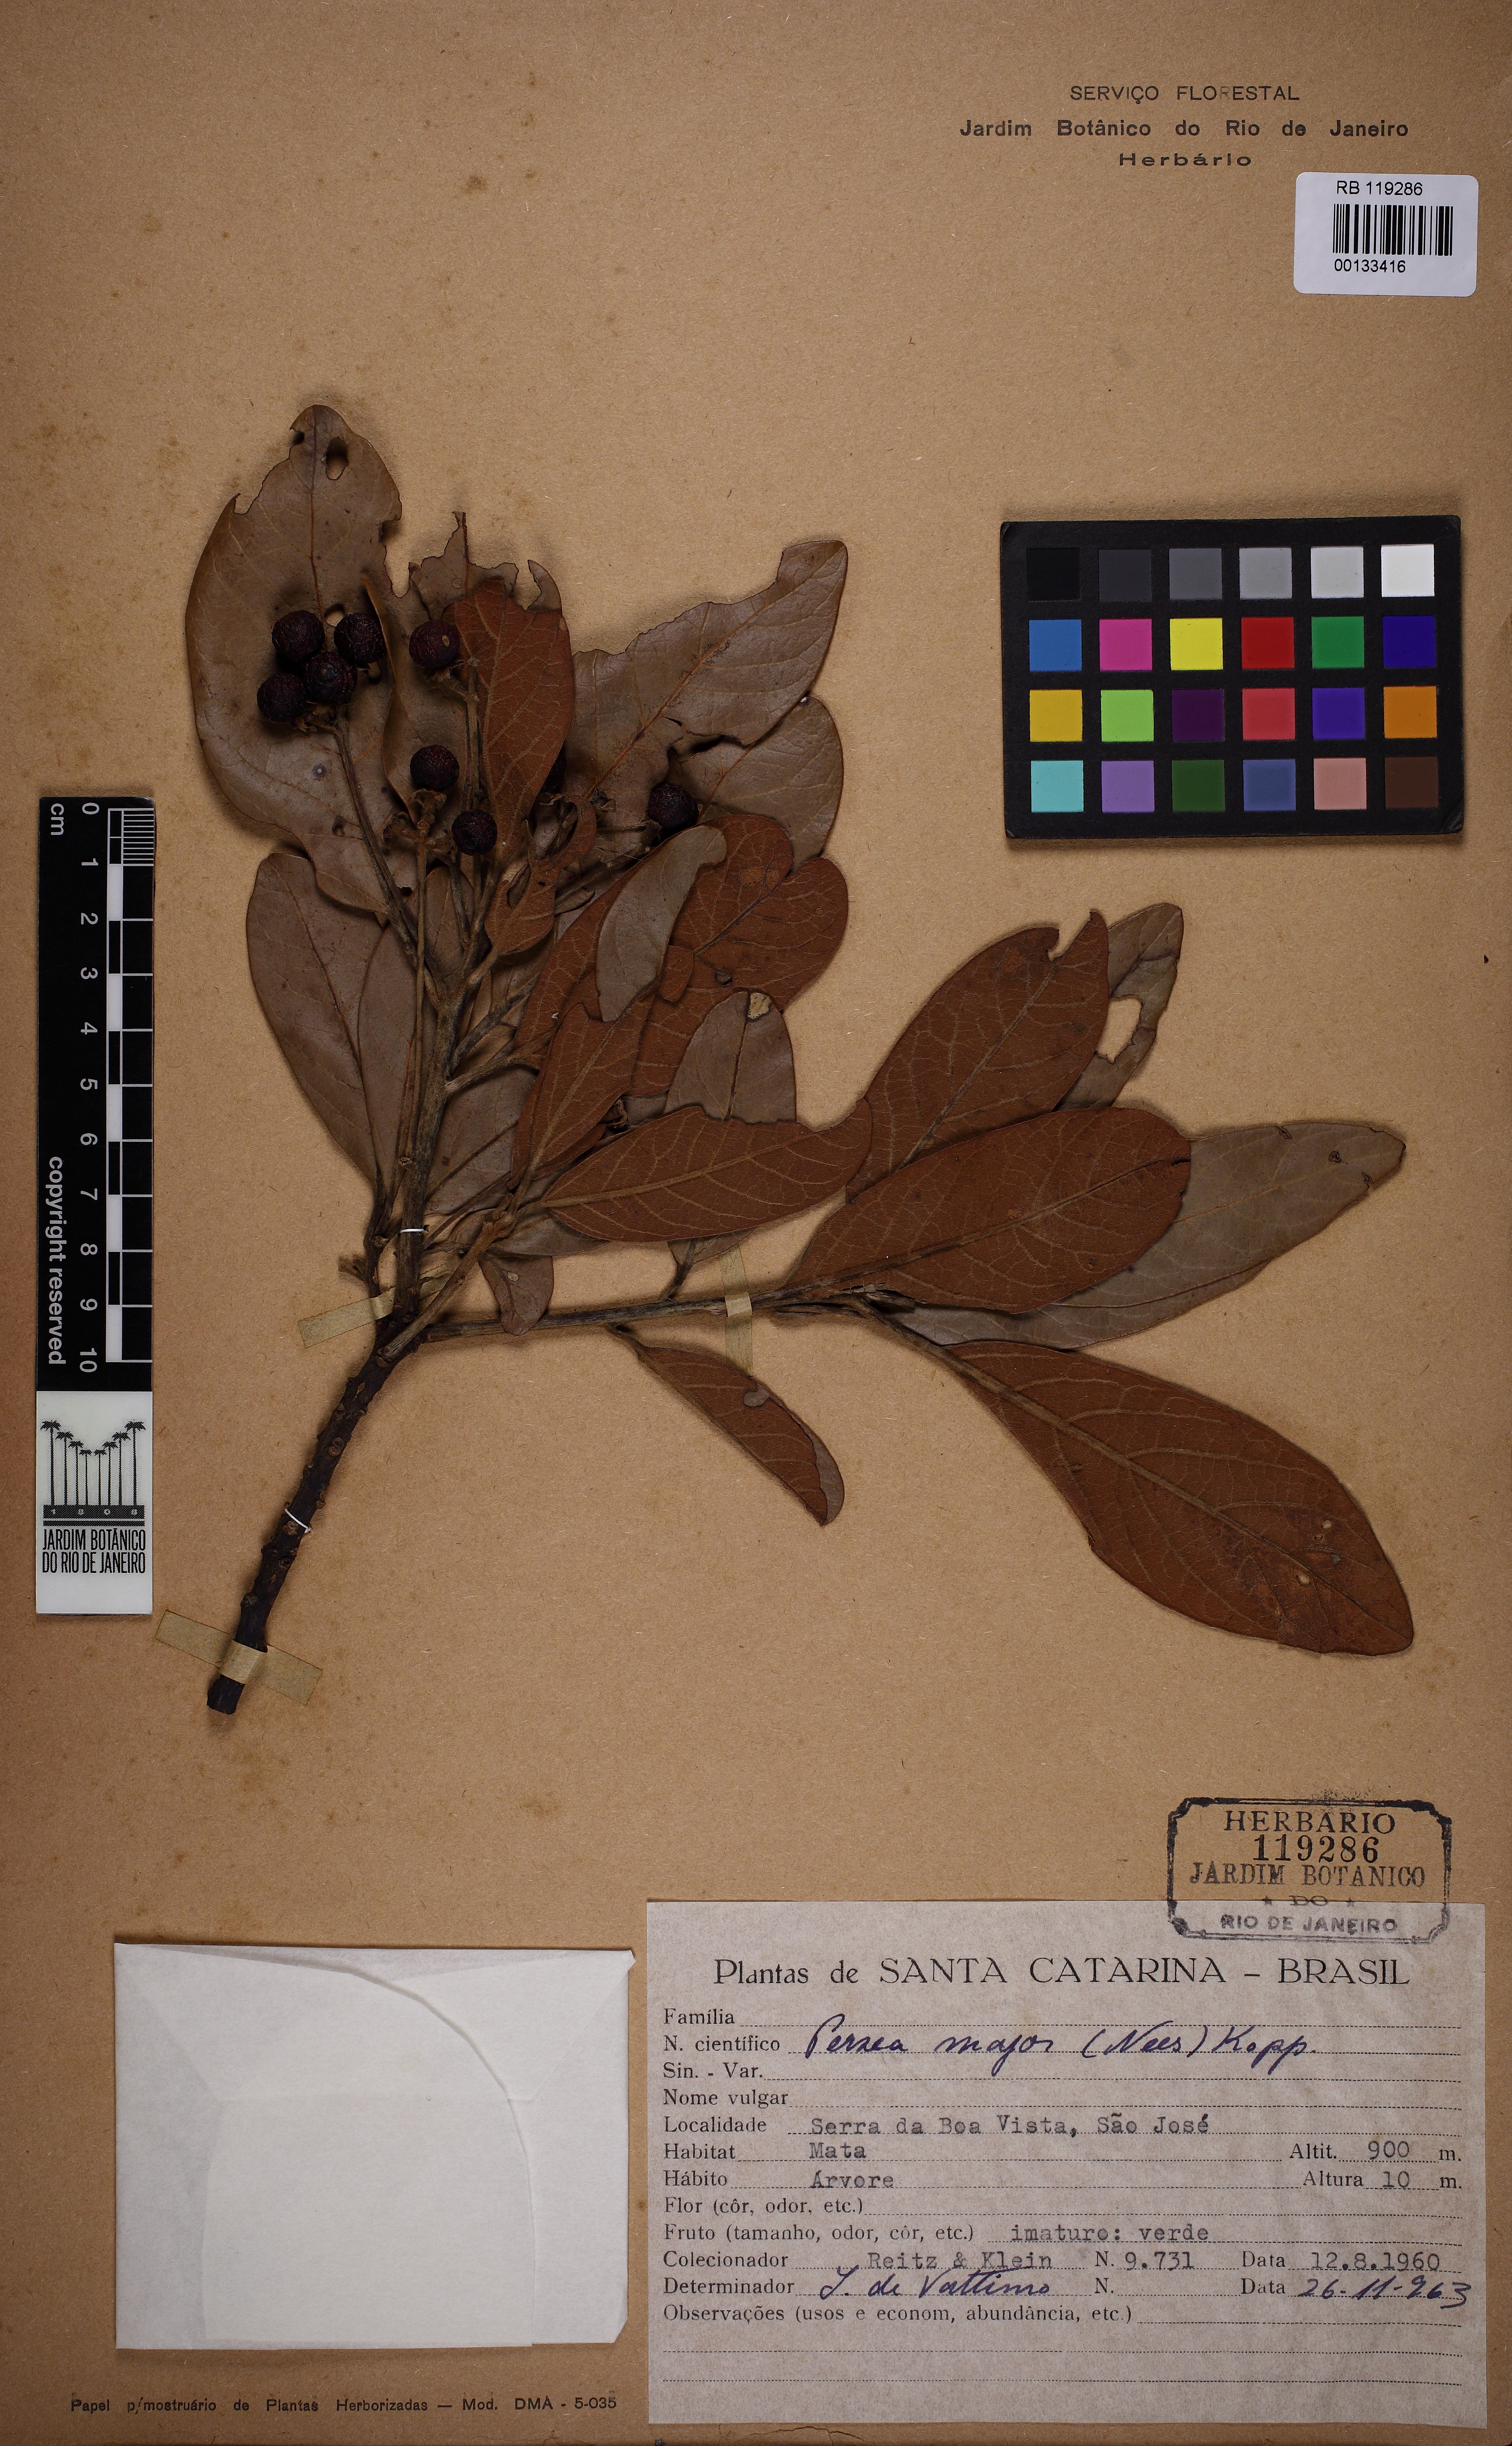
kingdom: Plantae
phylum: Tracheophyta
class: Magnoliopsida
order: Laurales
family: Lauraceae
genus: Persea
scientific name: Persea major
